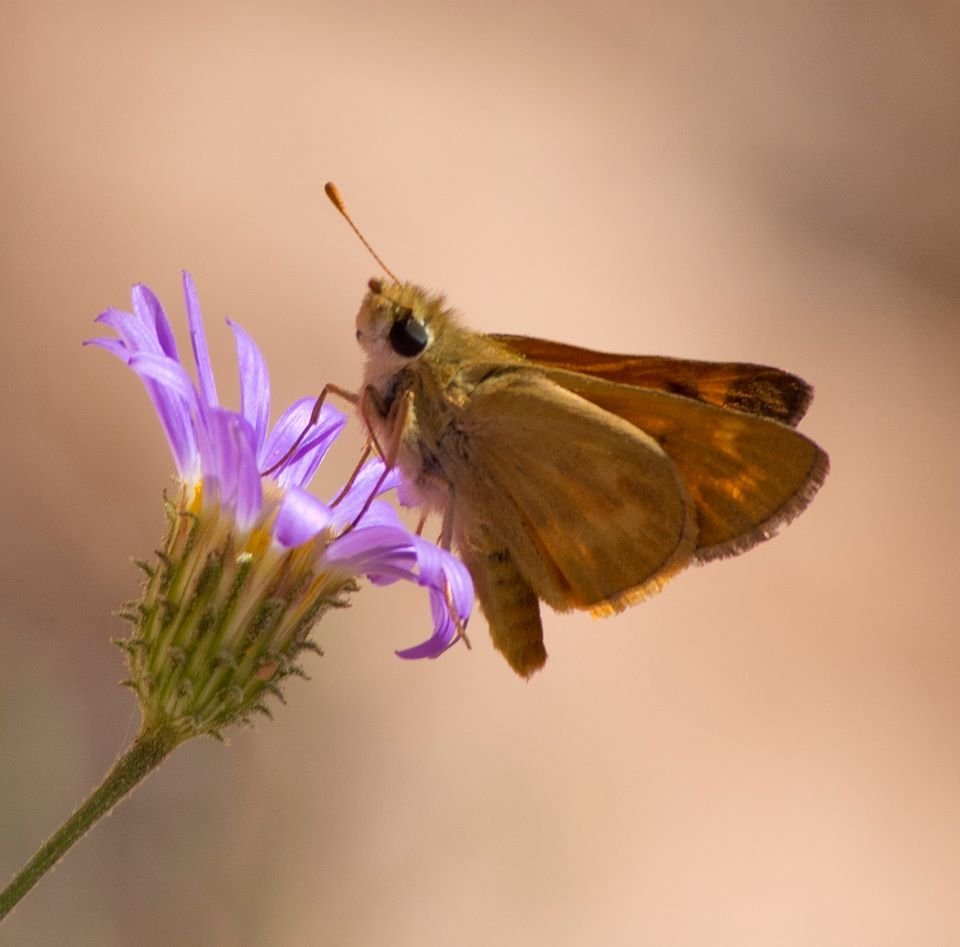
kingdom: Animalia
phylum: Arthropoda
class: Insecta
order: Lepidoptera
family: Hesperiidae
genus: Ochlodes
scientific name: Ochlodes sylvanoides
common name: Woodland Skipper
